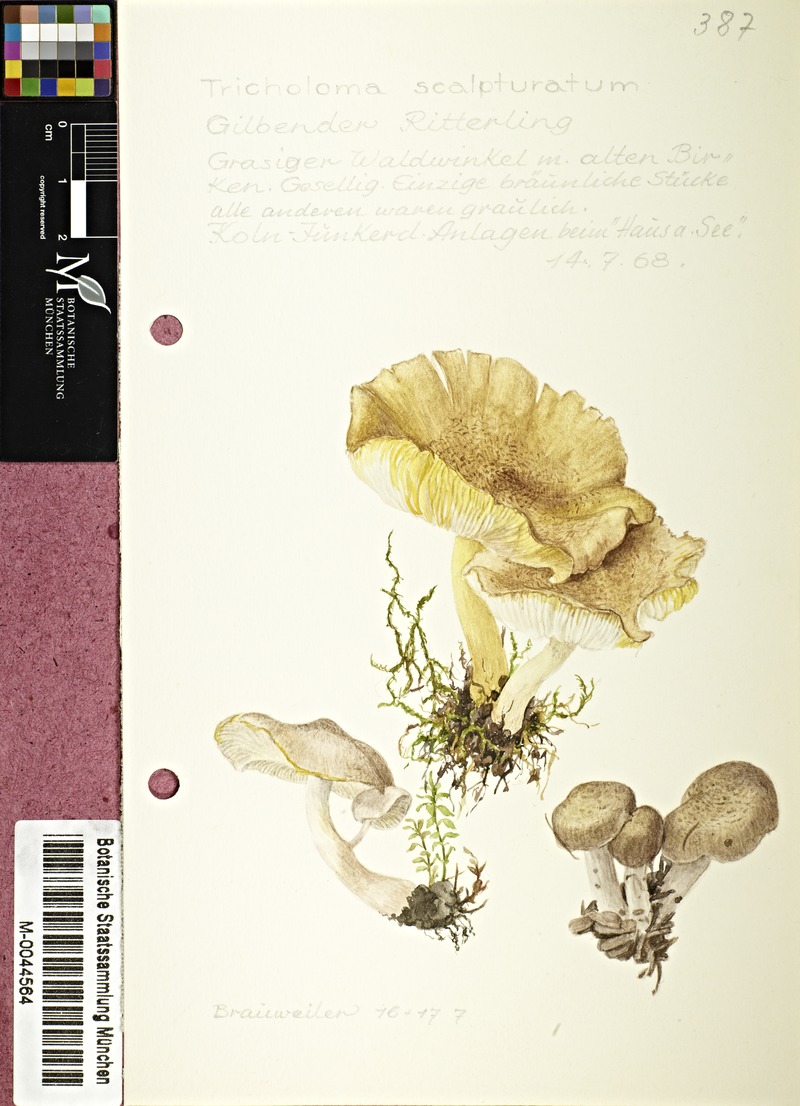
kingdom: Fungi
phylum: Basidiomycota
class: Agaricomycetes
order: Agaricales
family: Tricholomataceae
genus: Tricholoma
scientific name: Tricholoma scalpturatum
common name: Yellowing knight
